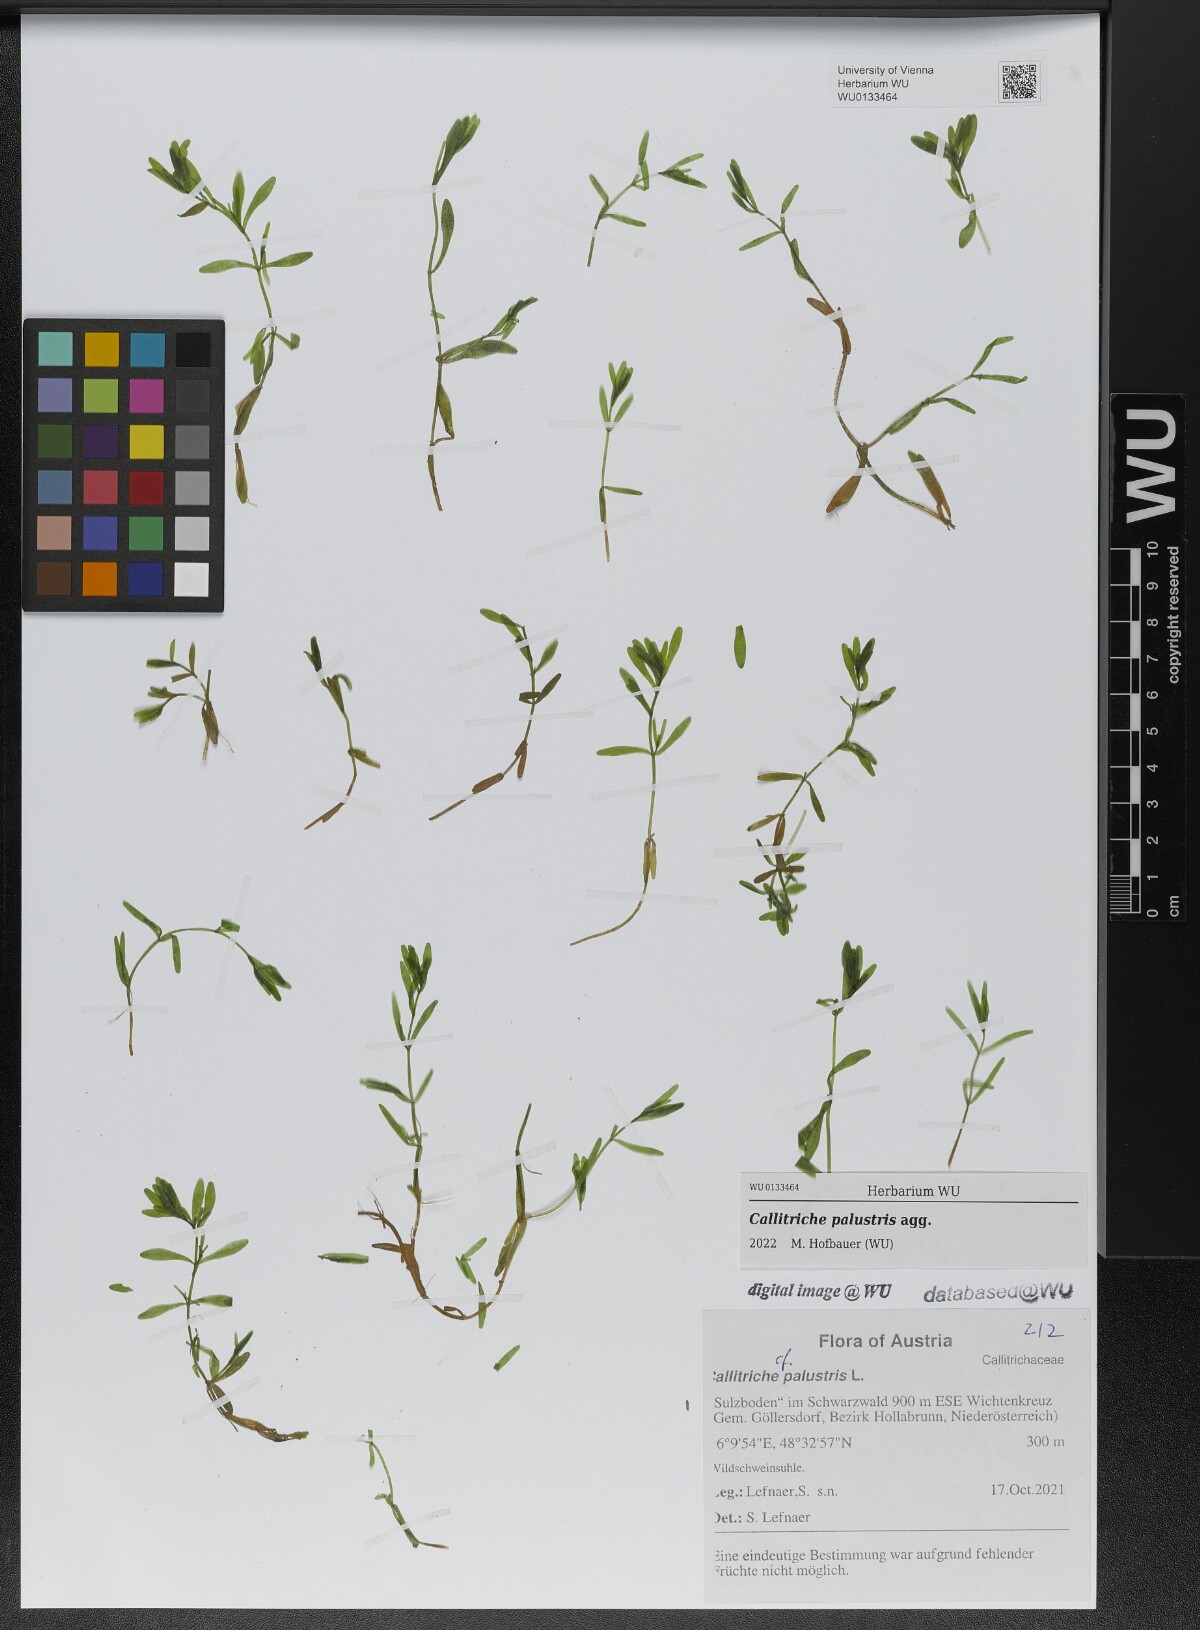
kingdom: Plantae
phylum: Tracheophyta
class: Magnoliopsida
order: Lamiales
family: Plantaginaceae
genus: Callitriche
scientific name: Callitriche palustris
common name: Spring water-starwort
